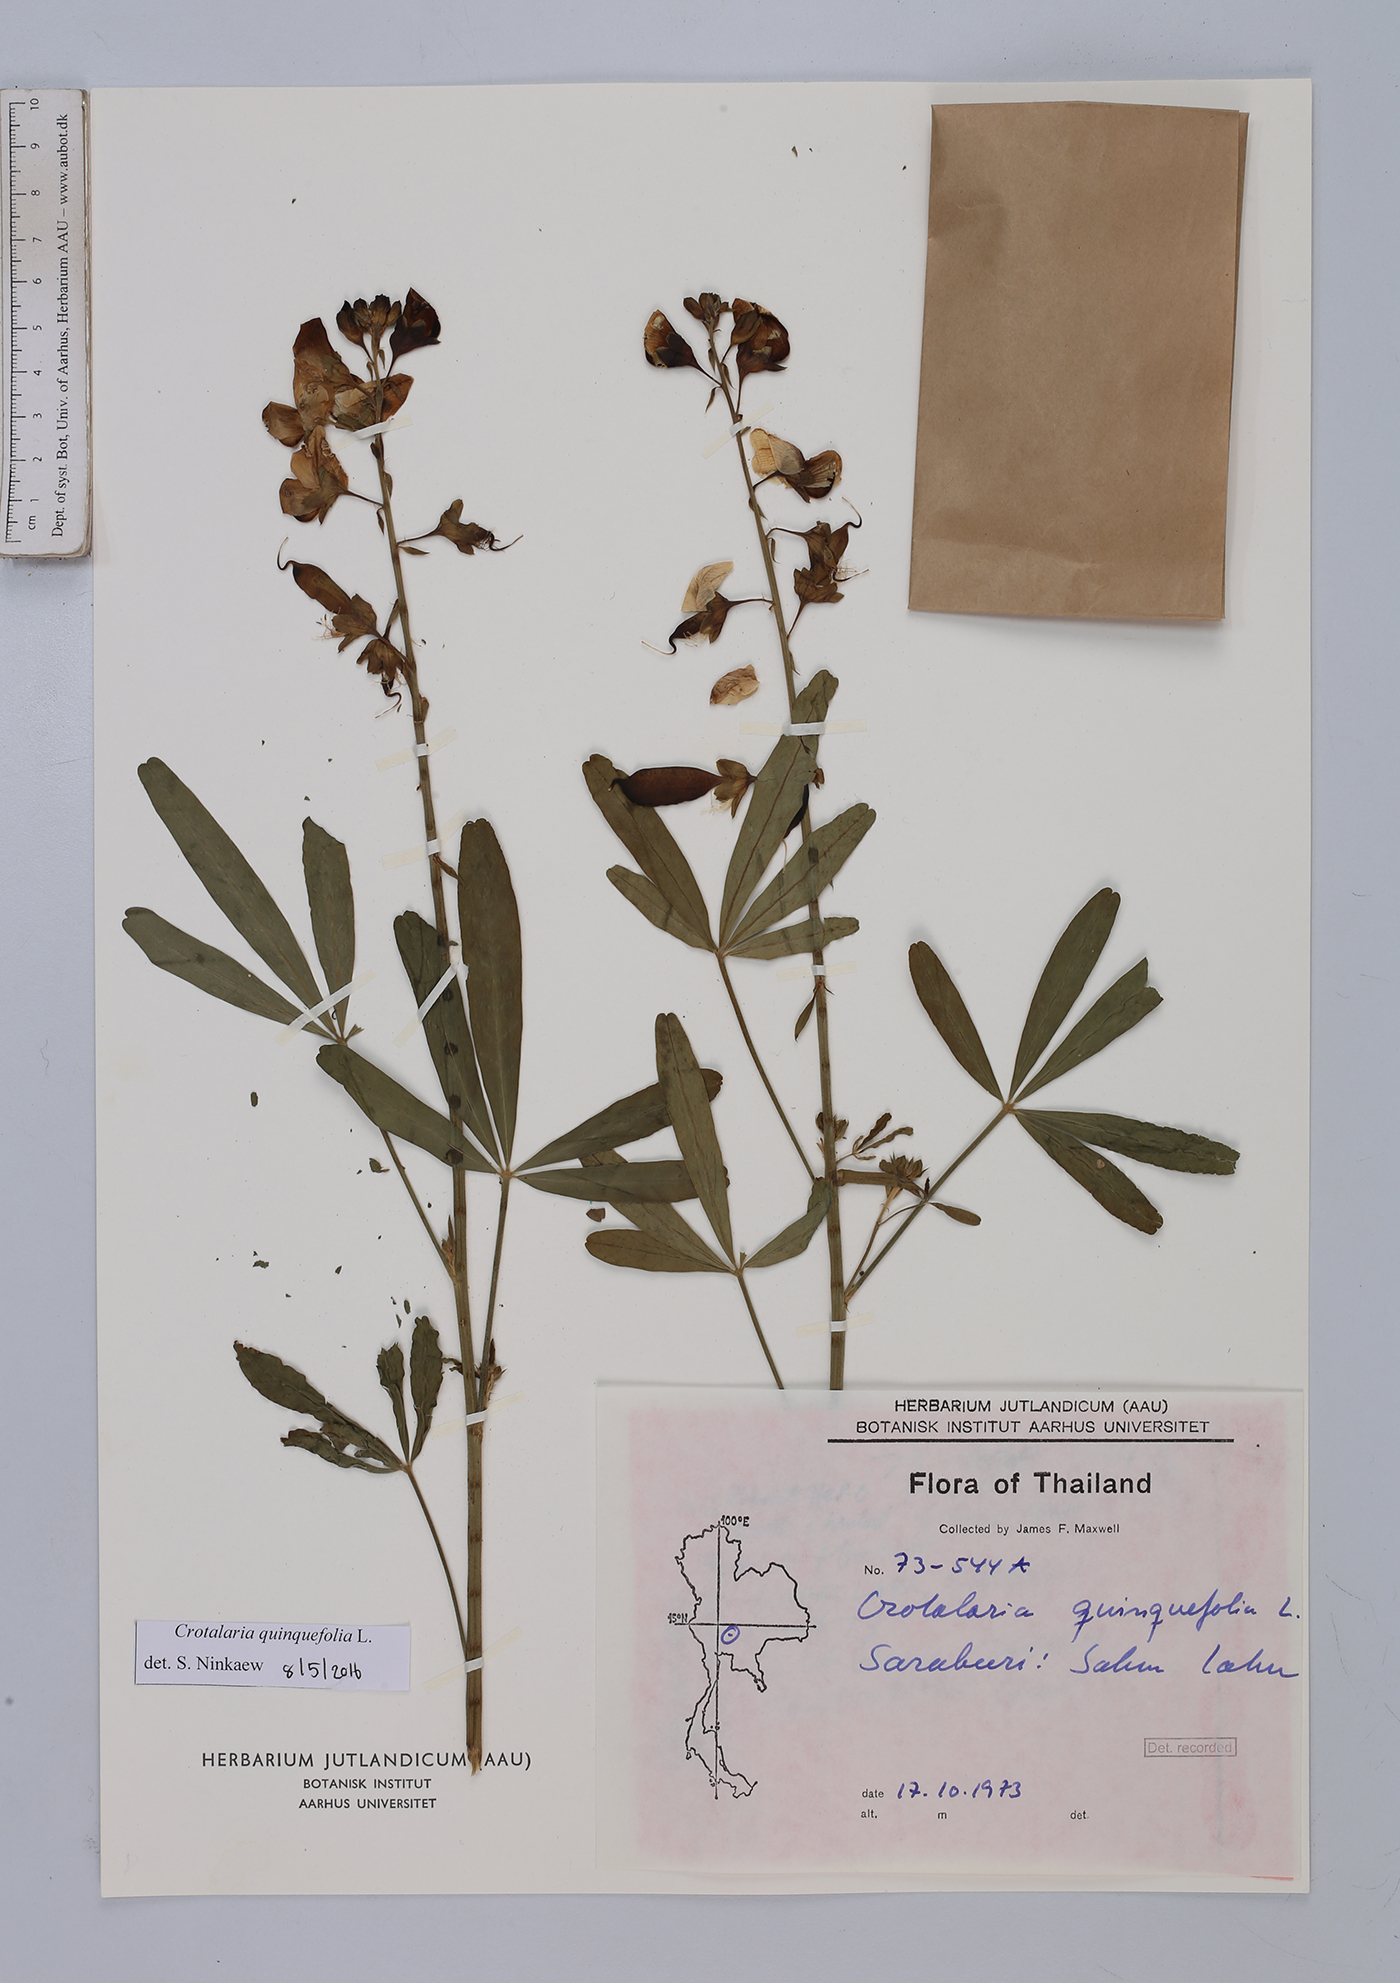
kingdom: Plantae
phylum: Tracheophyta
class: Magnoliopsida
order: Fabales
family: Fabaceae
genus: Crotalaria
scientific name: Crotalaria quinquefolia
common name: Five-leaf crotalaria
